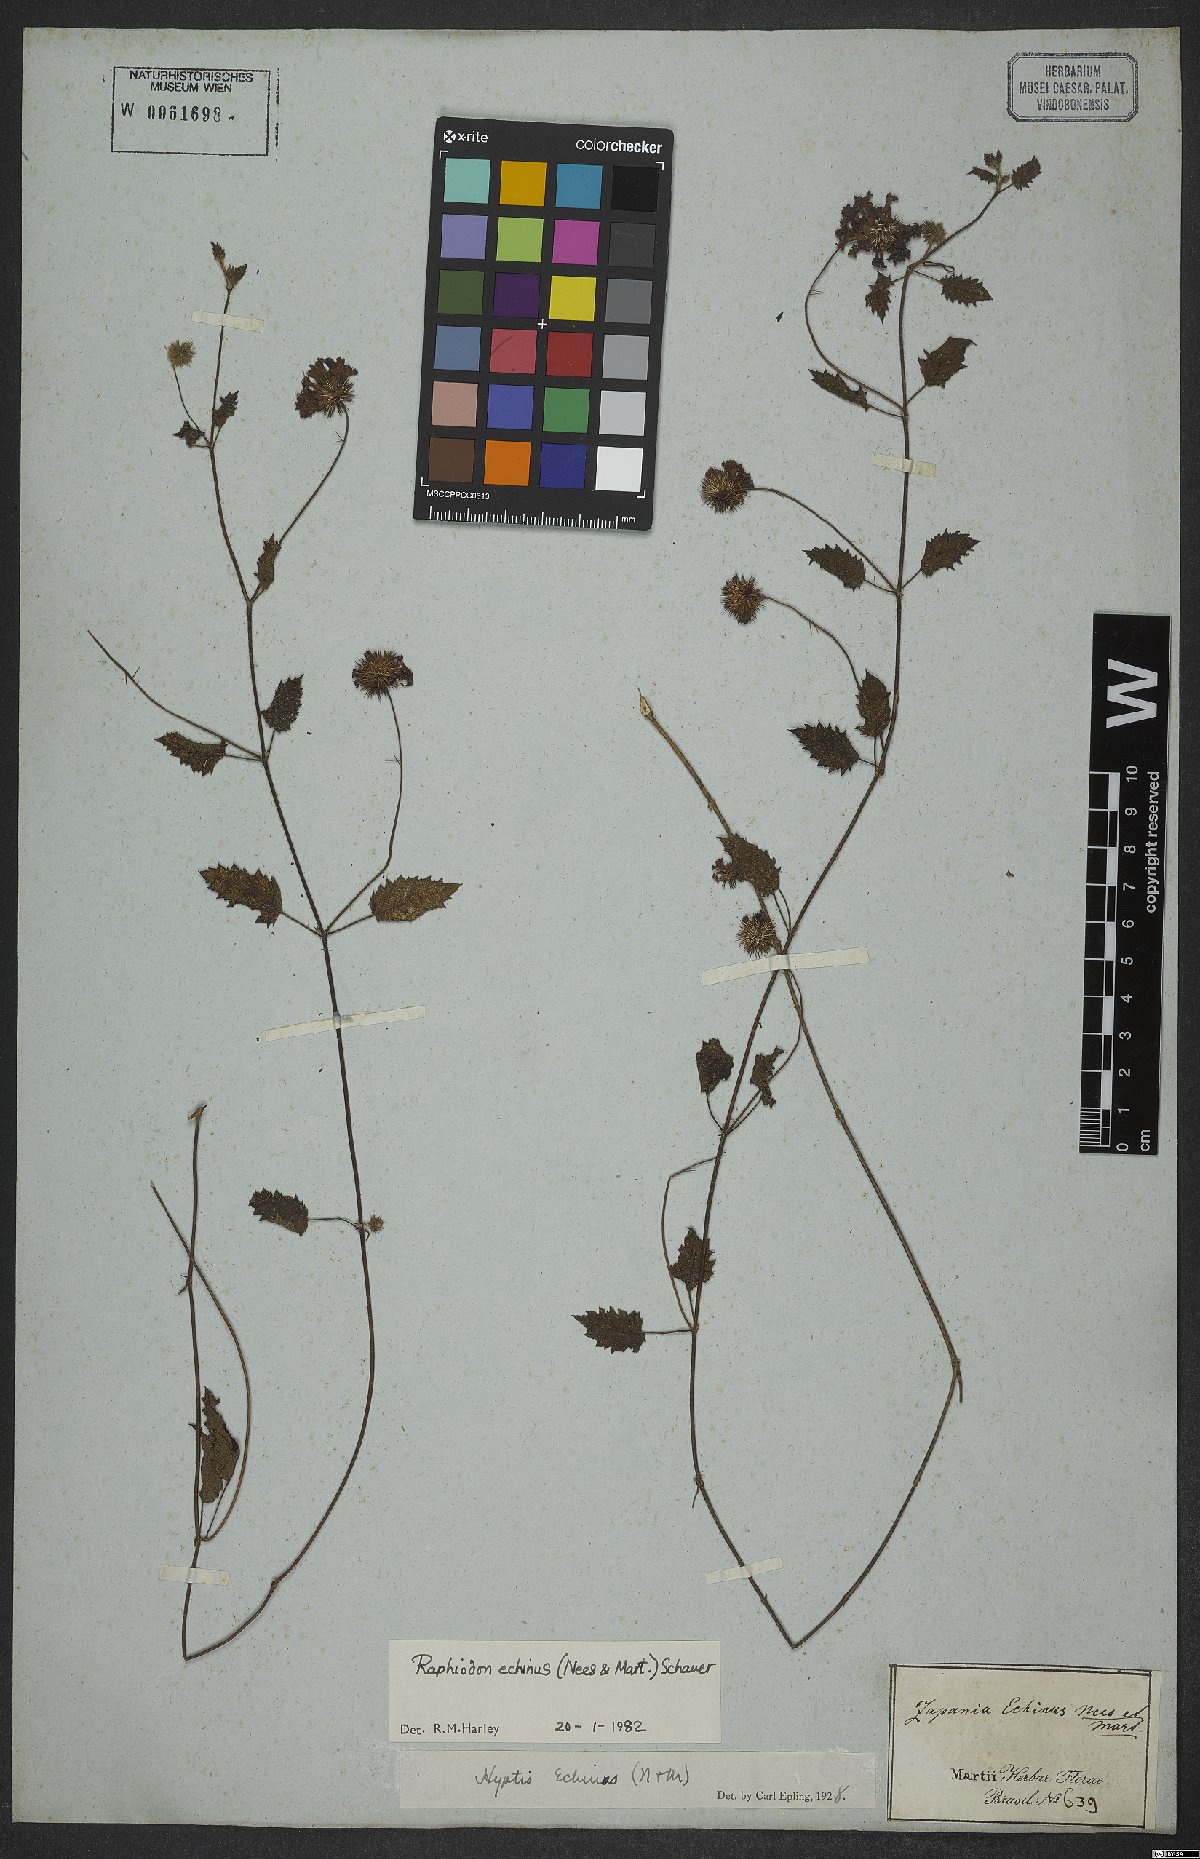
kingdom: Plantae
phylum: Tracheophyta
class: Magnoliopsida
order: Lamiales
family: Lamiaceae
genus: Rhaphiodon
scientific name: Rhaphiodon echinus
